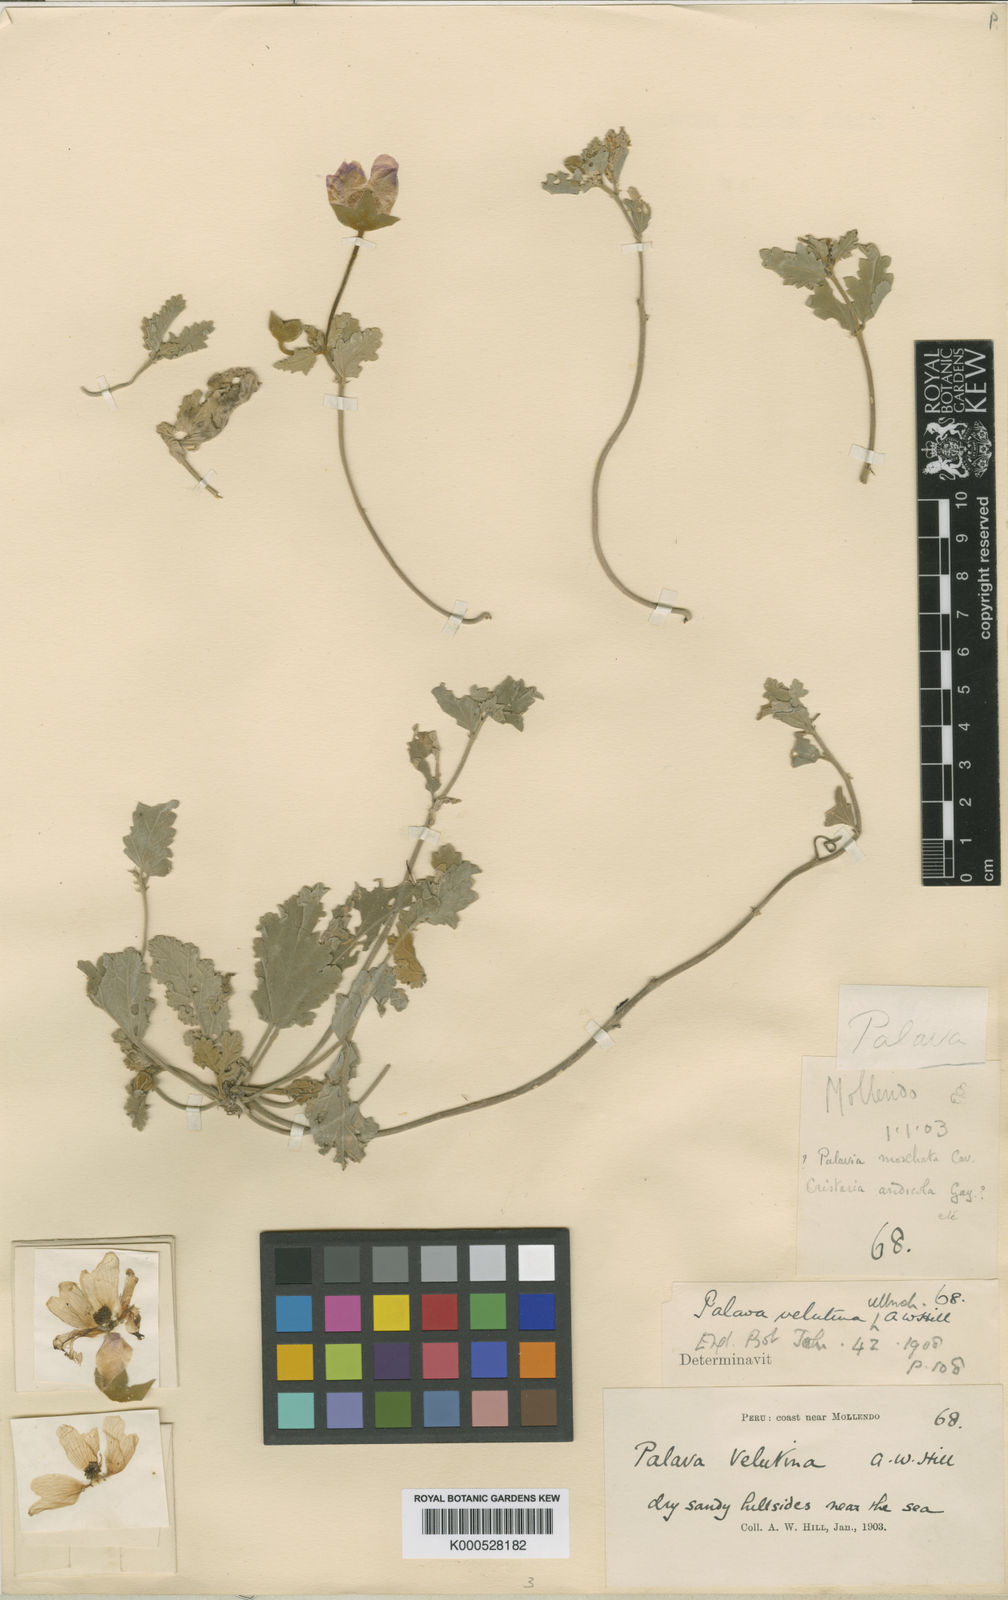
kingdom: Plantae
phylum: Tracheophyta
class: Magnoliopsida
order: Malvales
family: Malvaceae
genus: Palaua
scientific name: Palaua velutina
